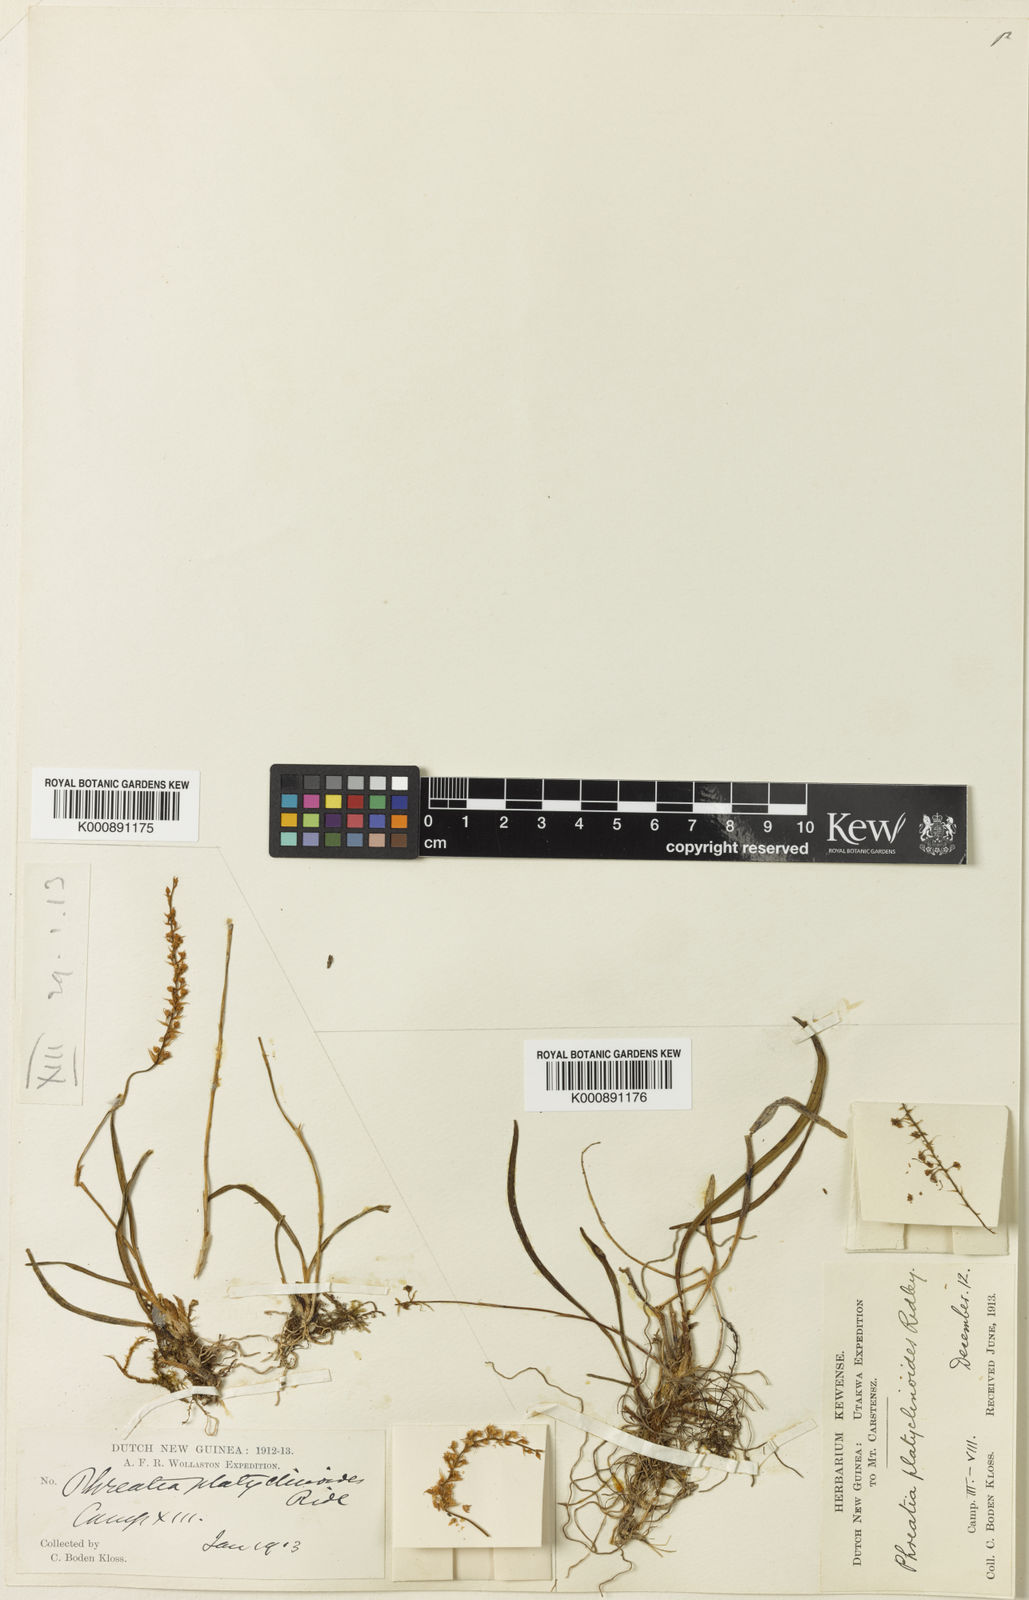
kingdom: Plantae
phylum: Tracheophyta
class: Liliopsida
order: Asparagales
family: Orchidaceae
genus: Phreatia
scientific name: Phreatia platyclinoides
